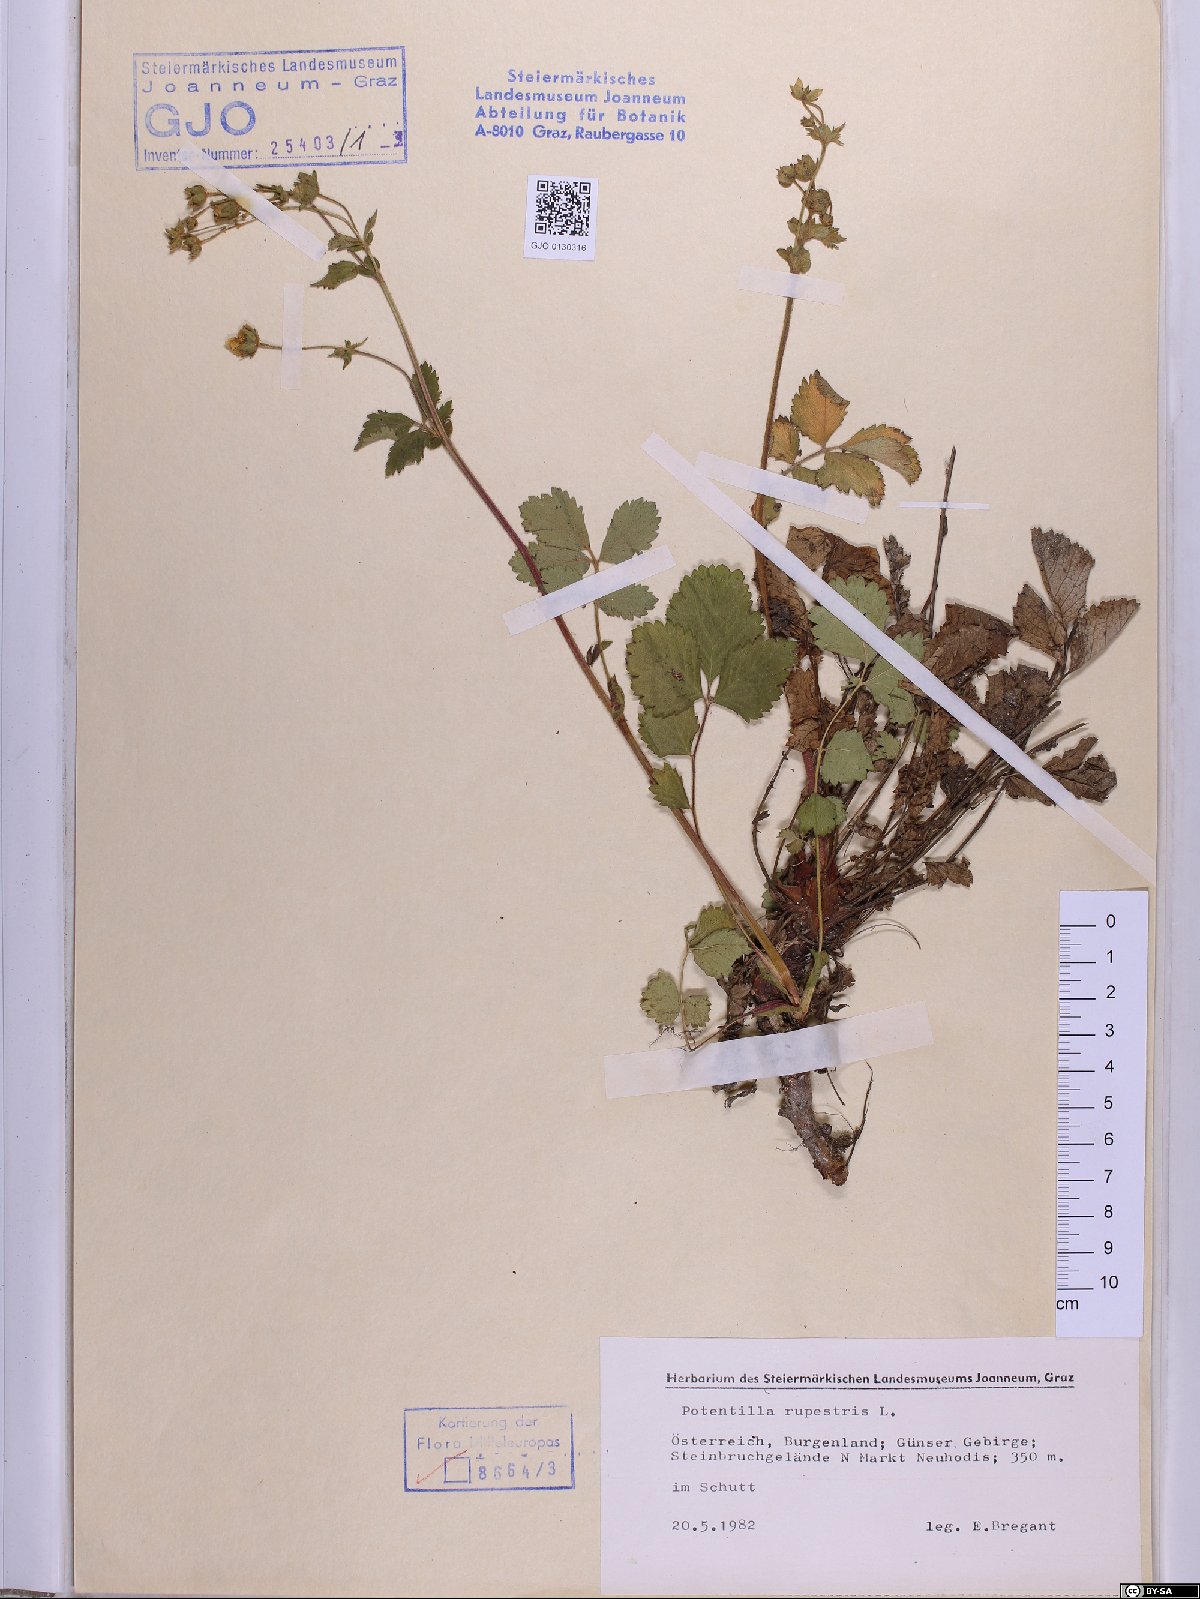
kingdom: Plantae
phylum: Tracheophyta
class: Magnoliopsida
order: Rosales
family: Rosaceae
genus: Drymocallis
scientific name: Drymocallis rupestris
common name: Rock cinquefoil
